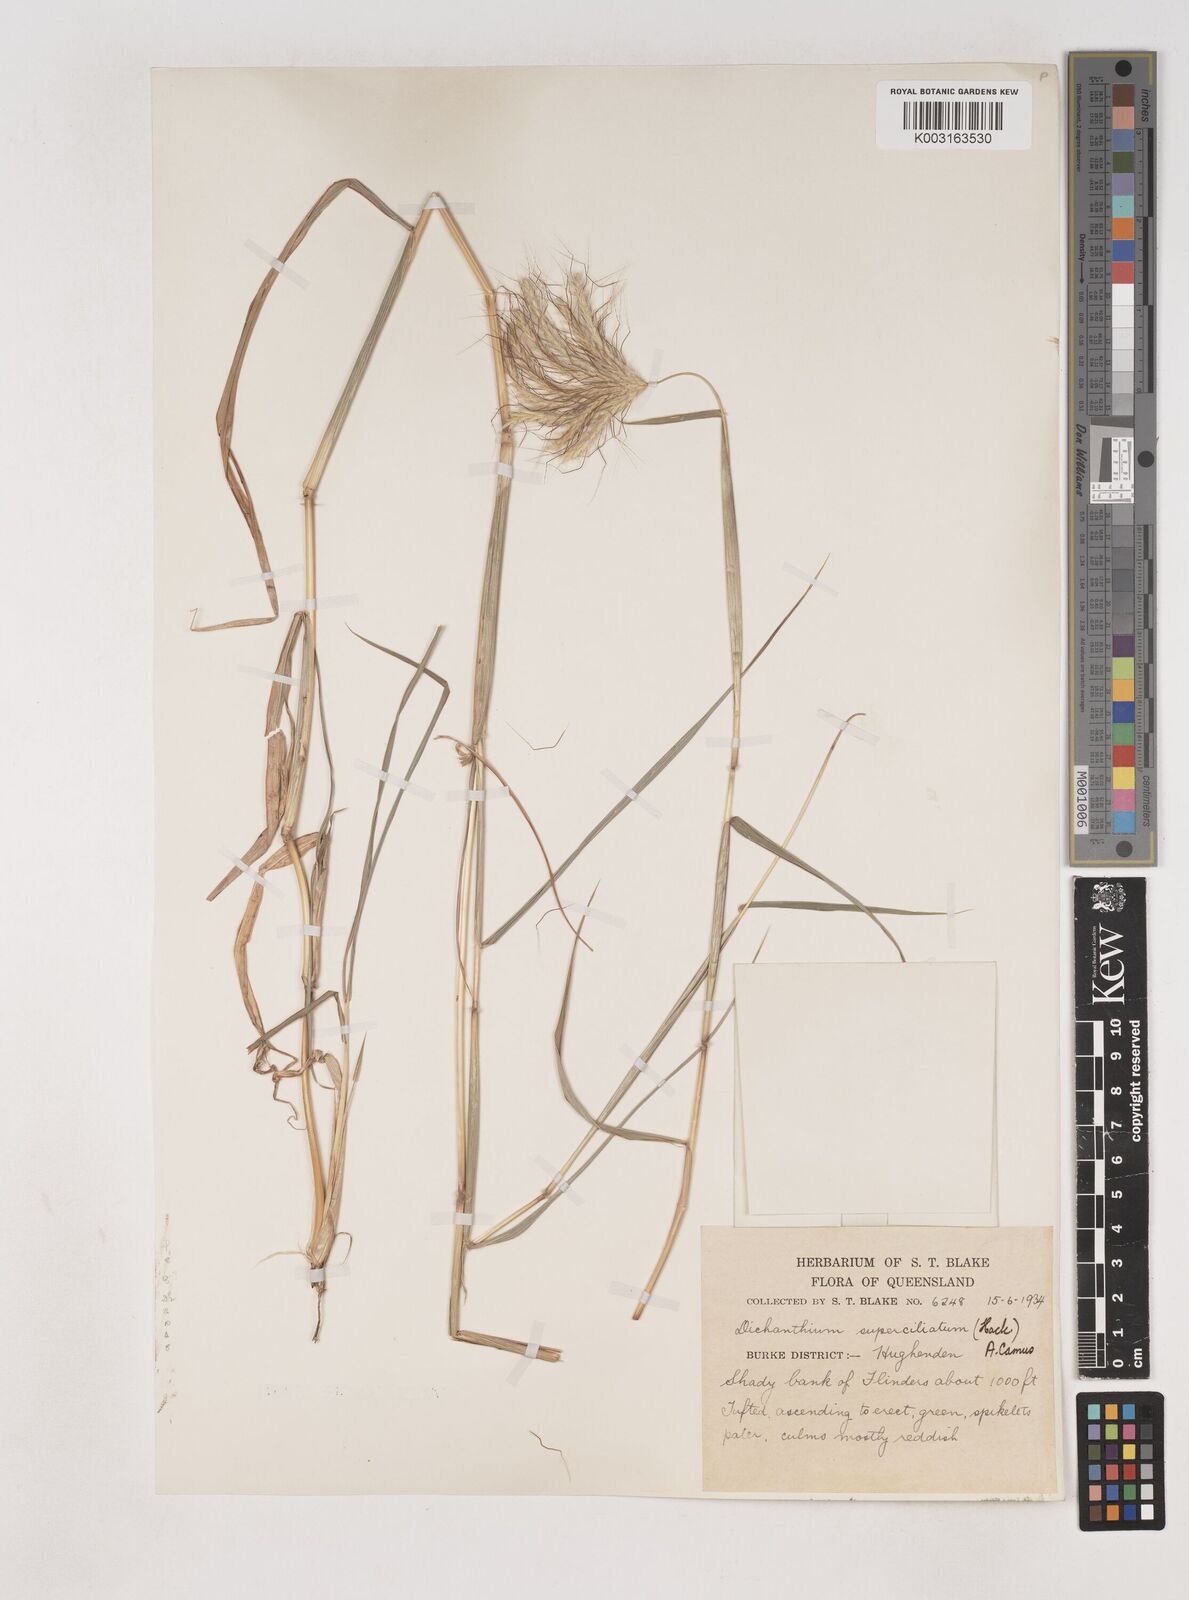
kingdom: Plantae
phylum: Tracheophyta
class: Liliopsida
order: Poales
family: Poaceae
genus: Dichanthium
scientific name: Dichanthium sericeum
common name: Silky bluestem
